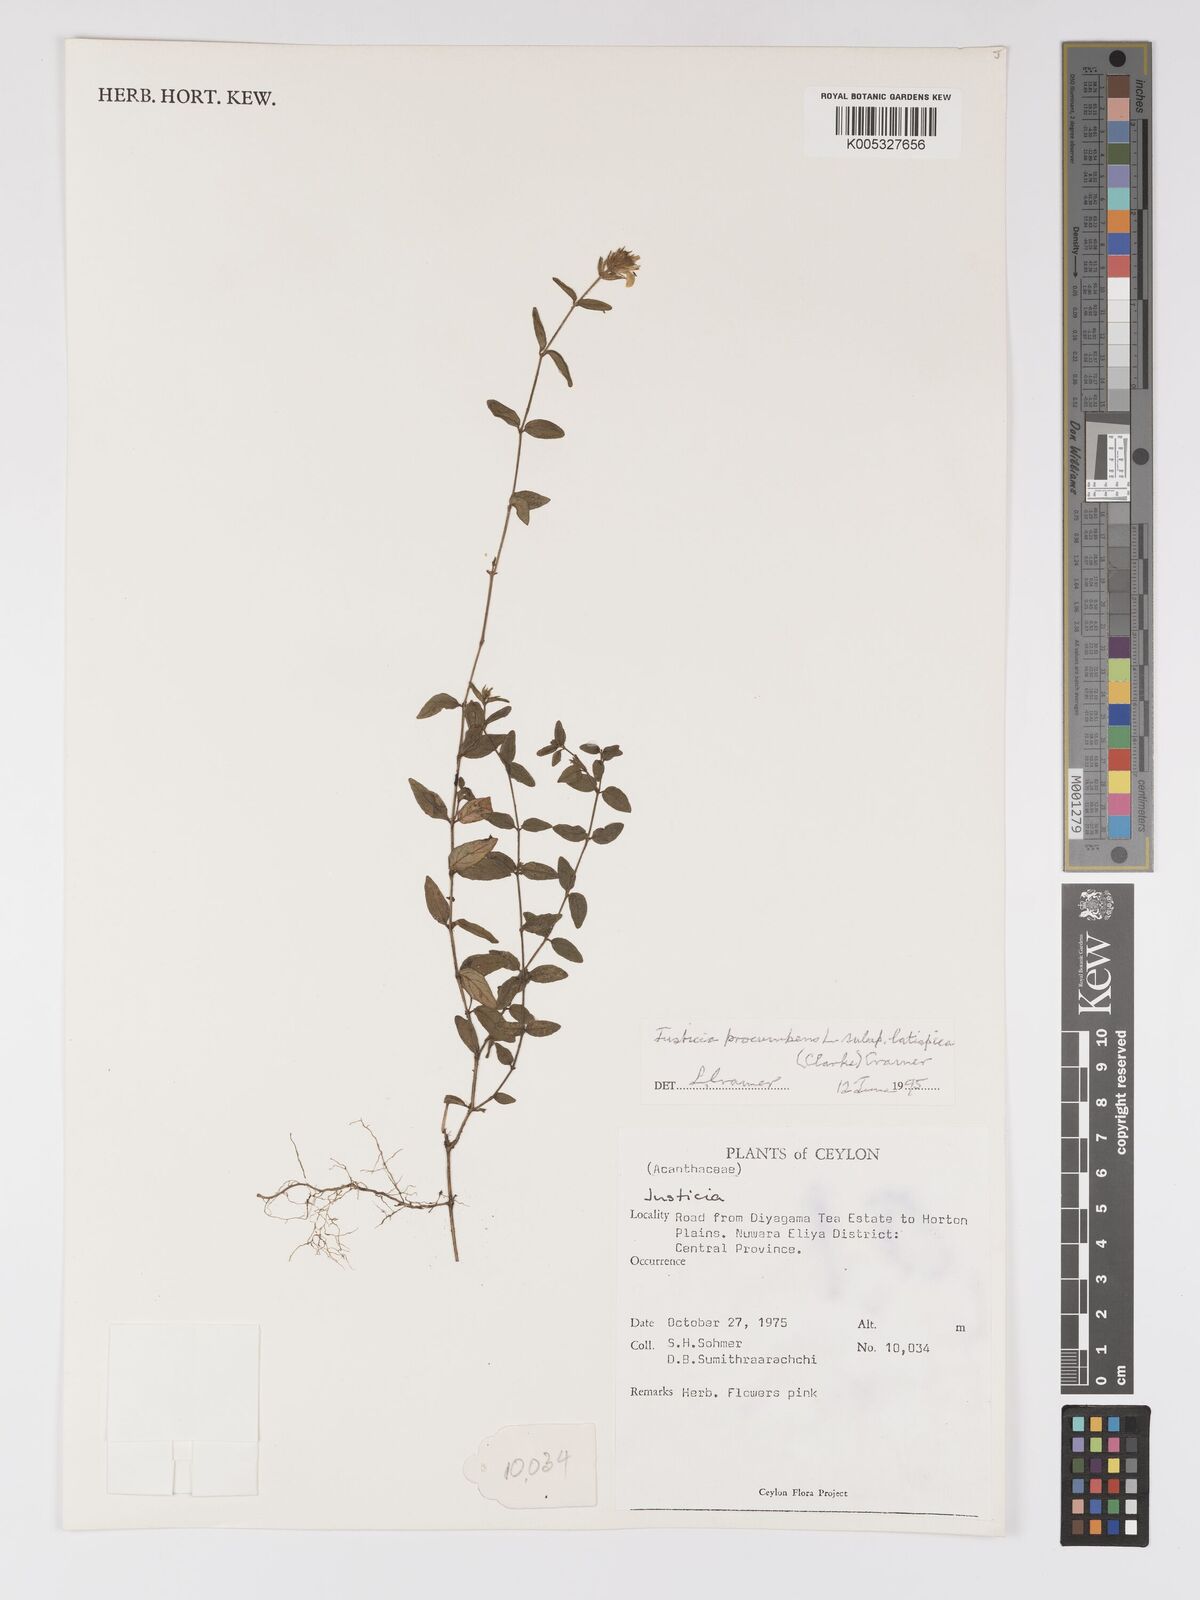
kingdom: Plantae
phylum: Tracheophyta
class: Magnoliopsida
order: Lamiales
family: Acanthaceae
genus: Rostellularia
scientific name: Rostellularia latispica
